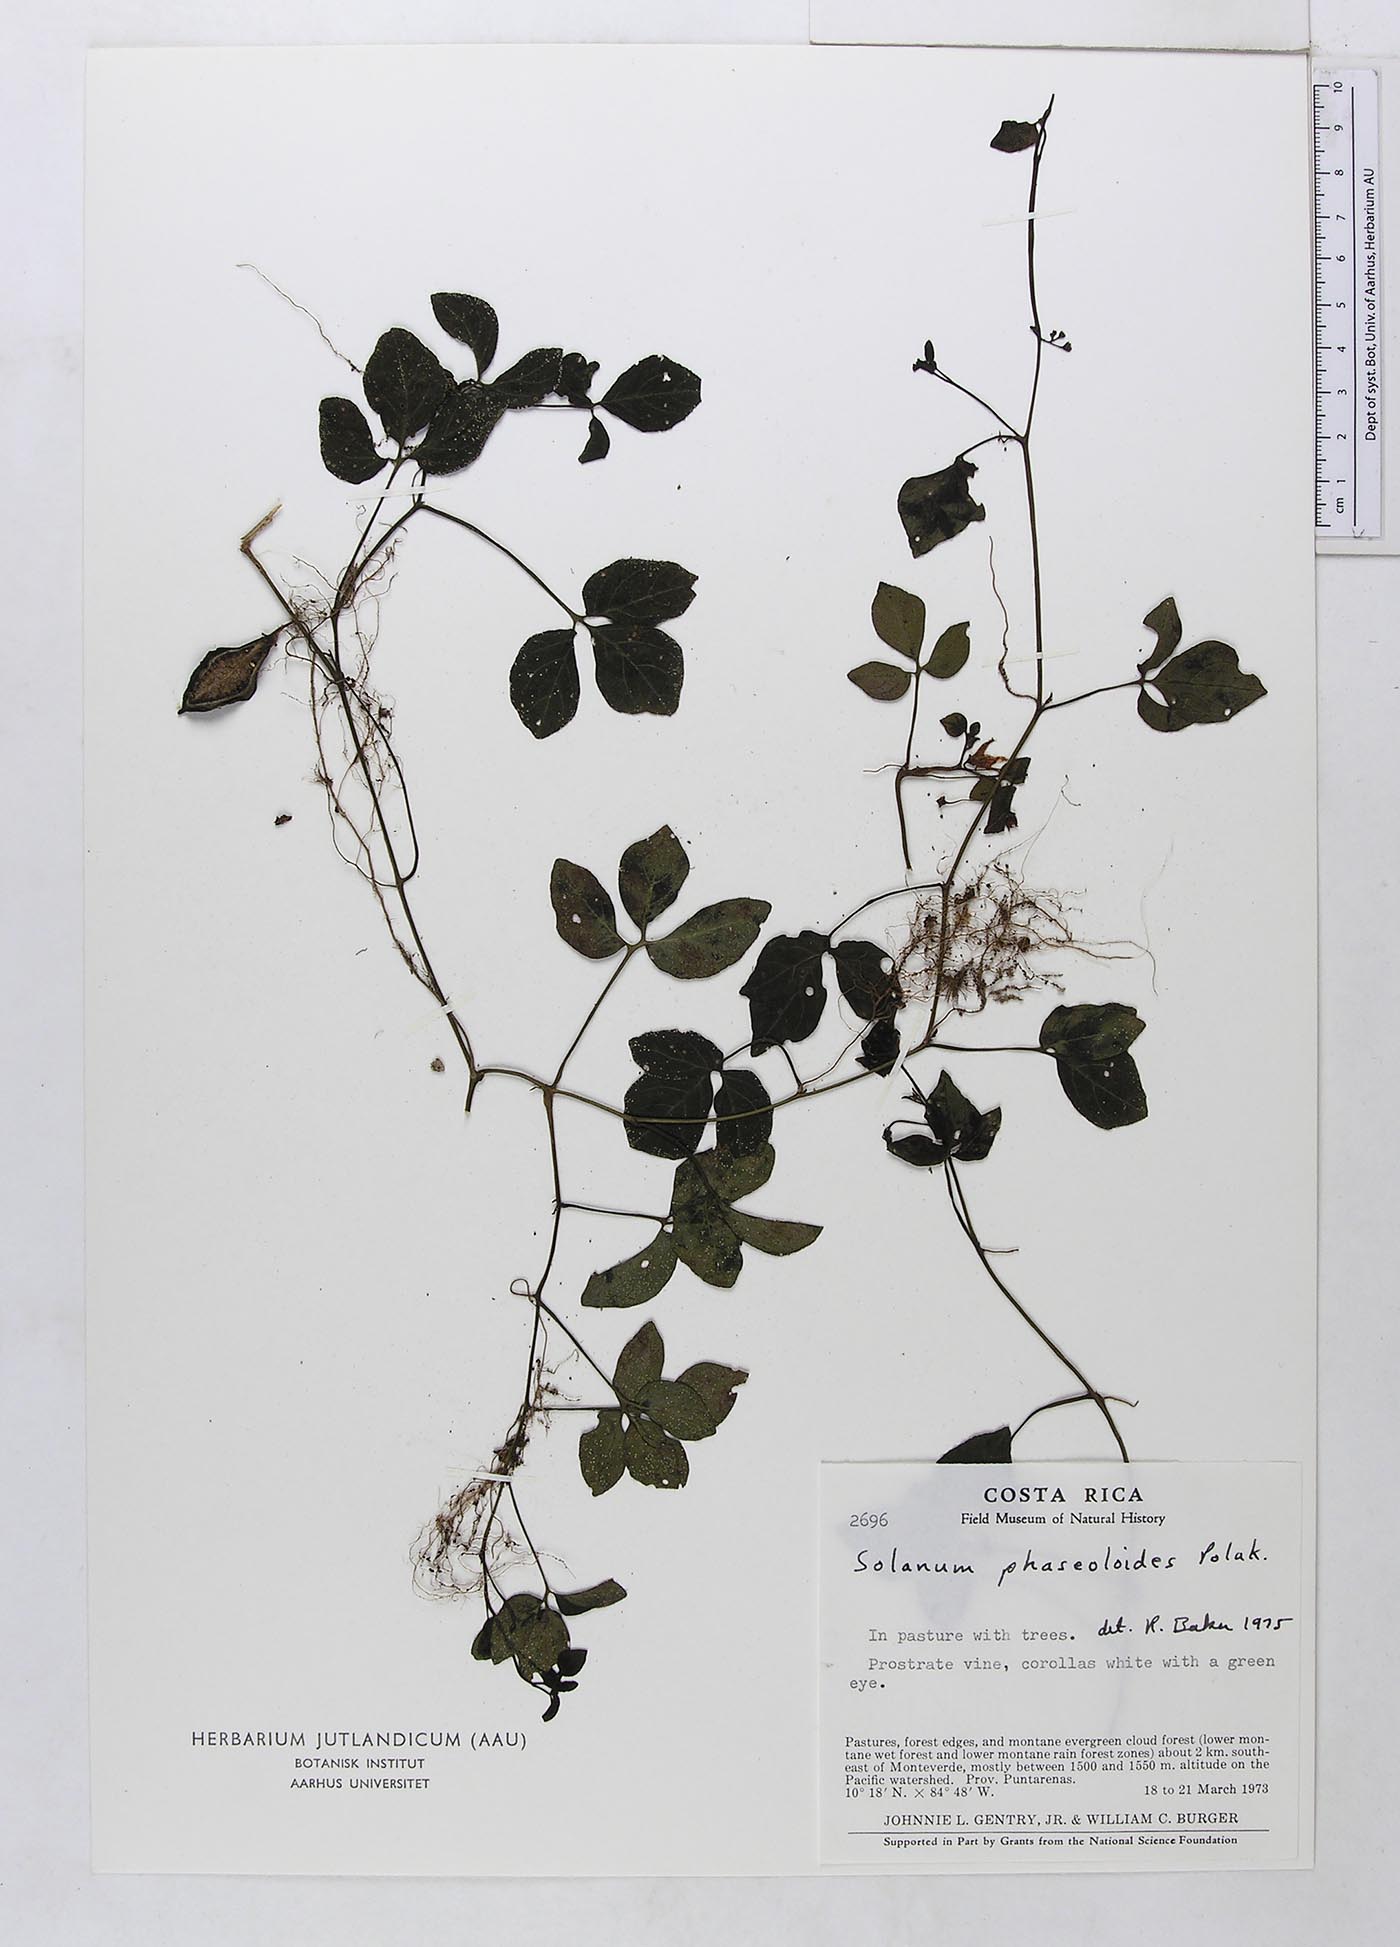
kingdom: Plantae
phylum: Tracheophyta
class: Magnoliopsida
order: Solanales
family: Solanaceae
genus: Solanum
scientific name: Solanum phaseoloides
